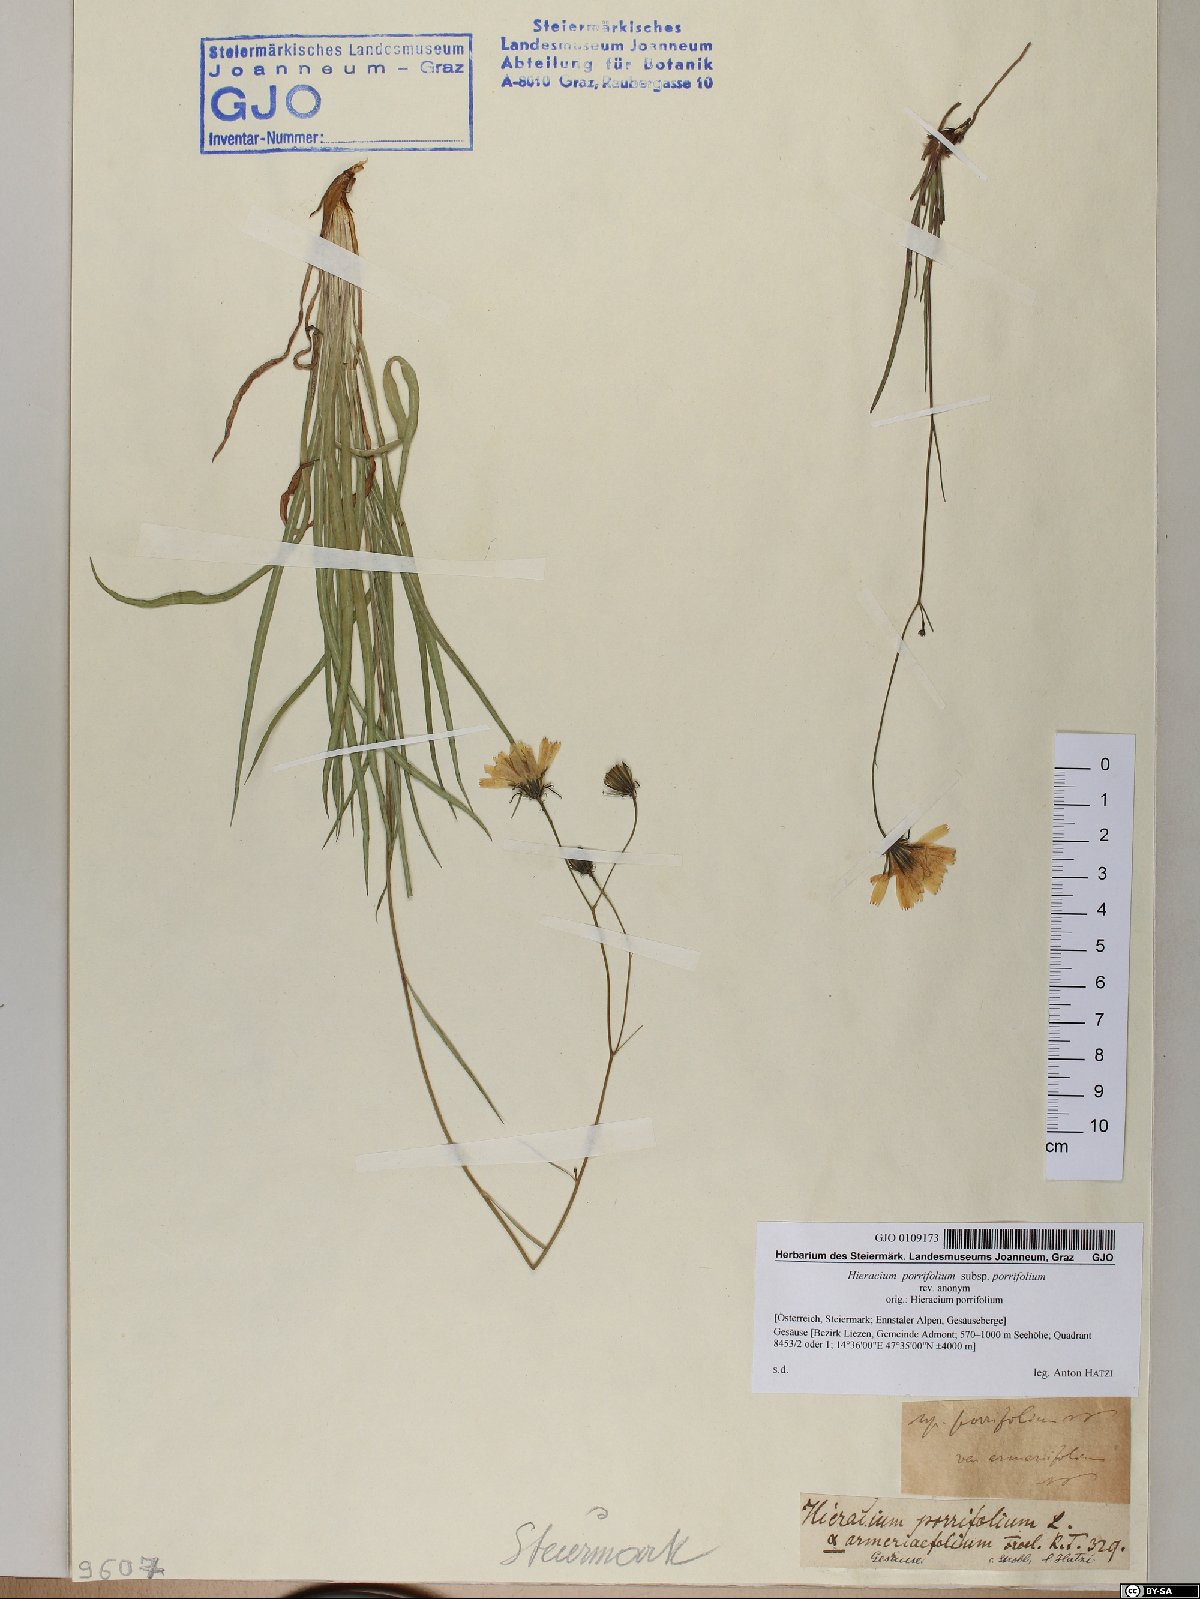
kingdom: Plantae
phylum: Tracheophyta
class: Magnoliopsida
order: Asterales
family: Asteraceae
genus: Hieracium
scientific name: Hieracium porrifolium
